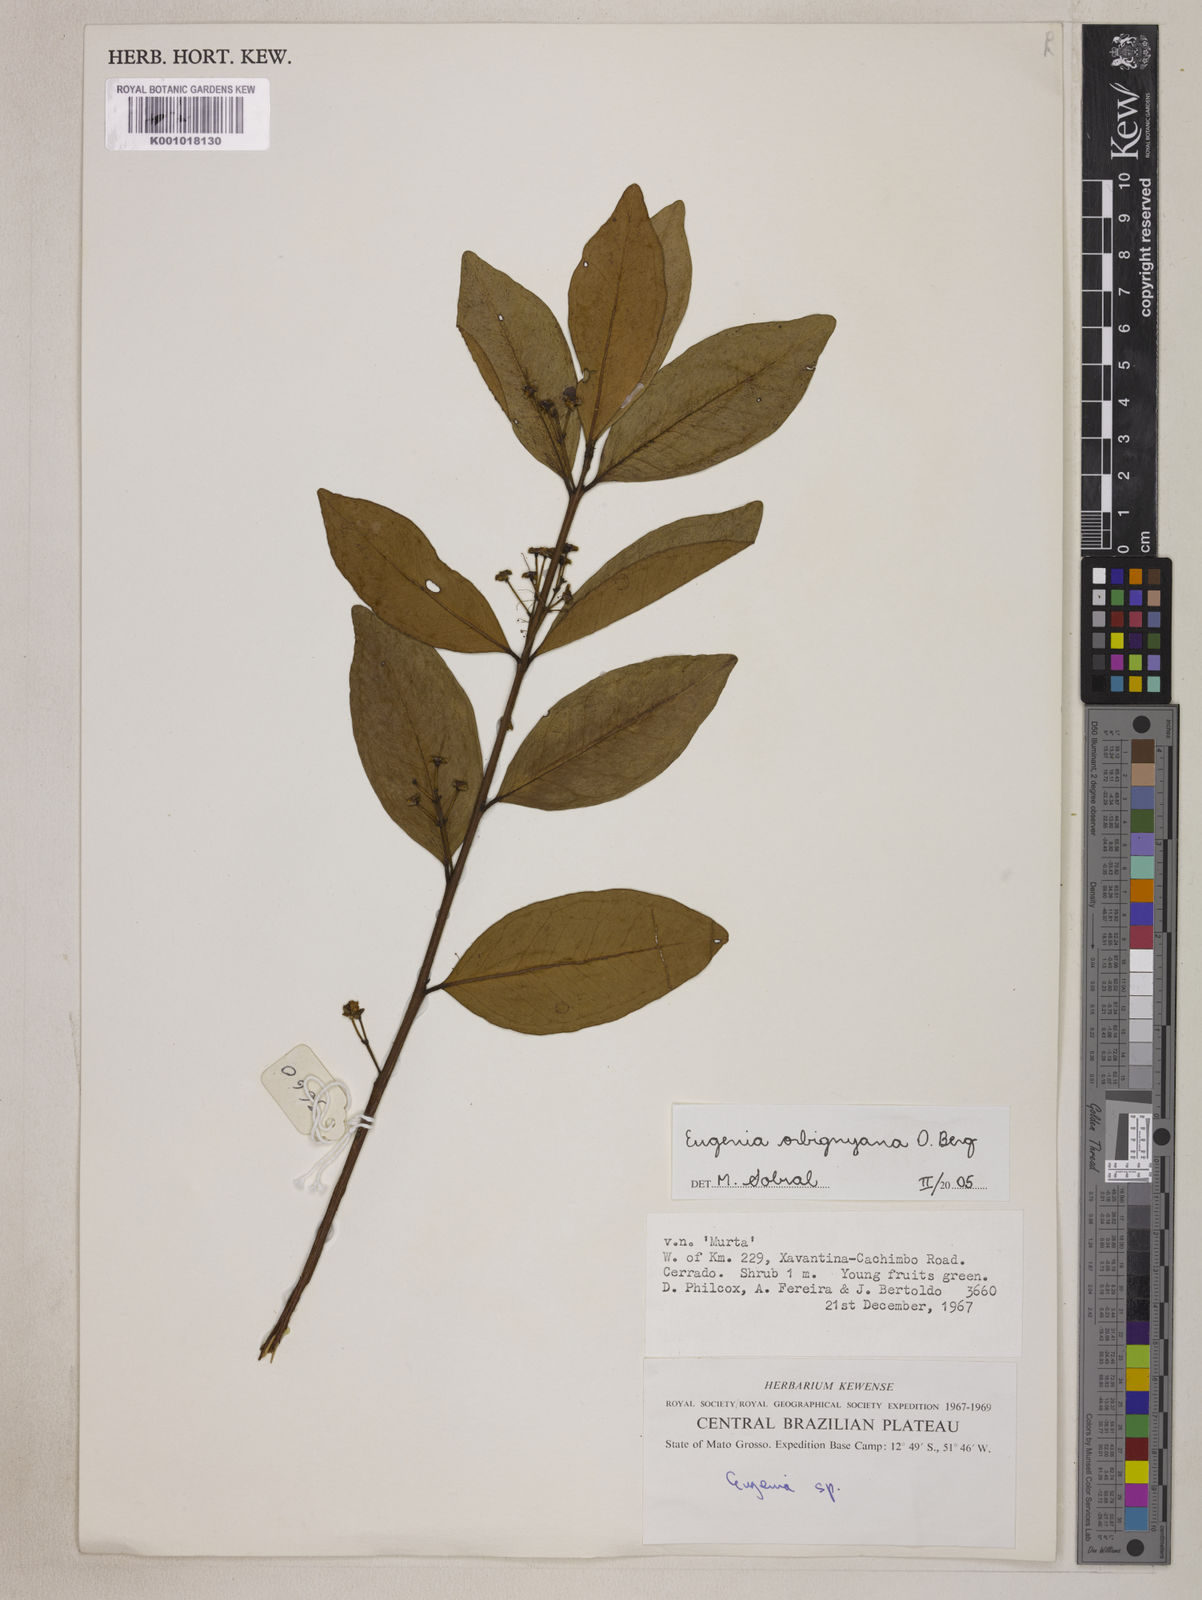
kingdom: Plantae
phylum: Tracheophyta
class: Magnoliopsida
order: Myrtales
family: Myrtaceae
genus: Eugenia
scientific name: Eugenia orbignyana
